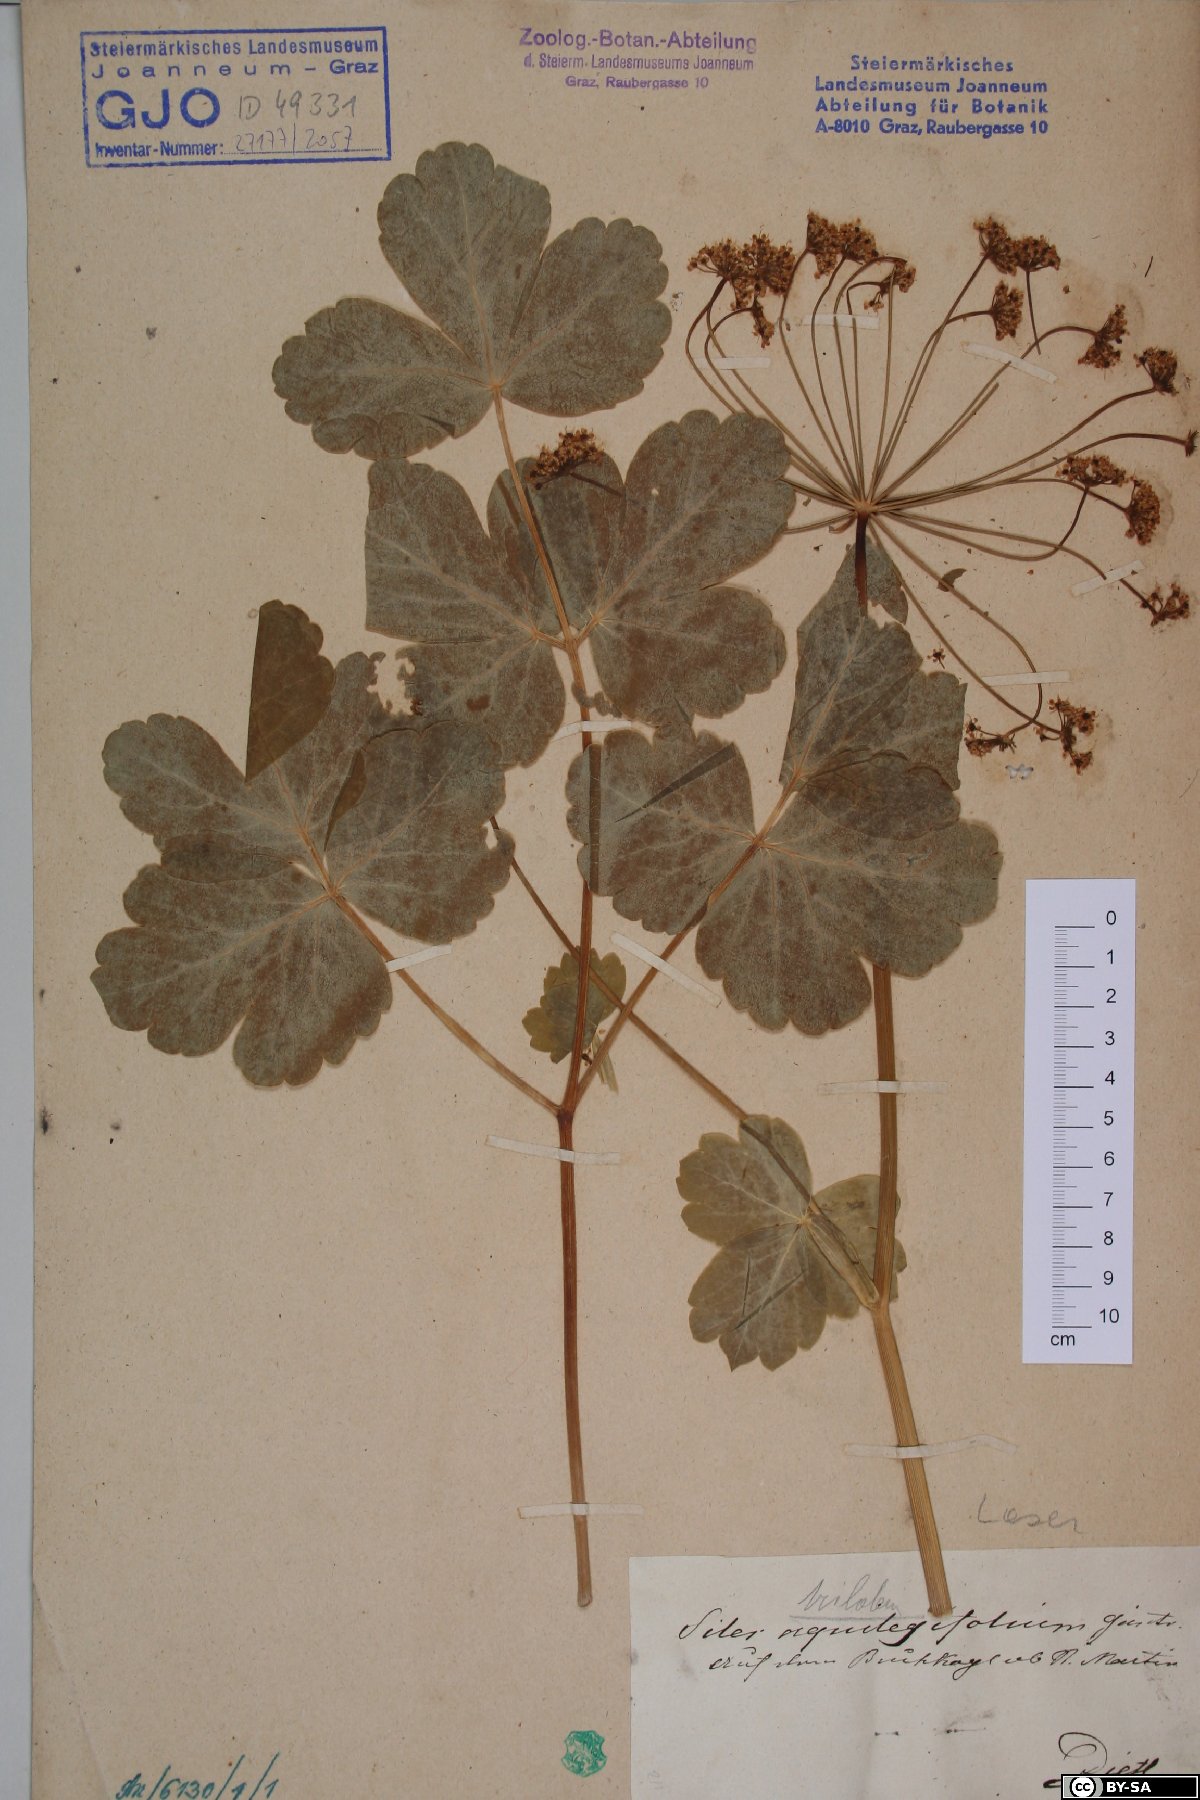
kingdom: Plantae
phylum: Tracheophyta
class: Magnoliopsida
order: Apiales
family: Apiaceae
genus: Laser
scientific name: Laser trilobum
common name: Laser
